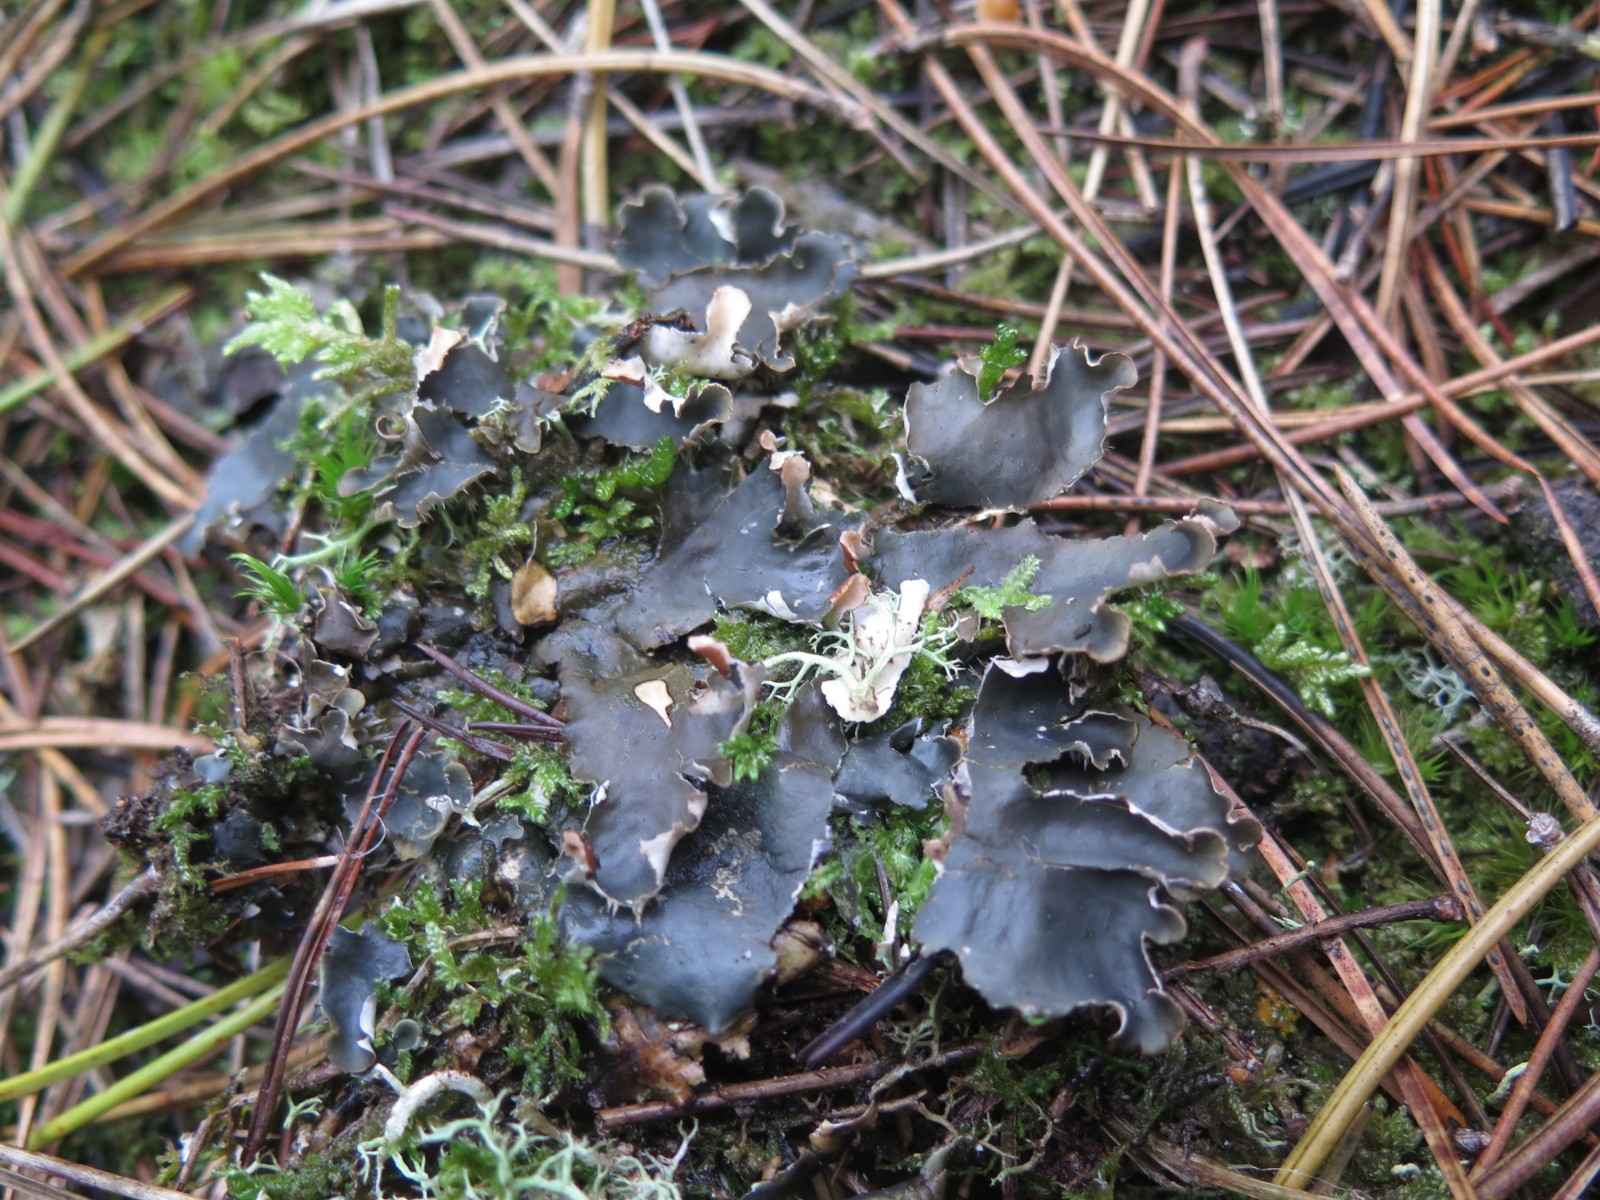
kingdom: Fungi
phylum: Ascomycota
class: Lecanoromycetes
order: Peltigerales
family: Peltigeraceae
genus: Peltigera
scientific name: Peltigera hymenina
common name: hinde-skjoldlav
